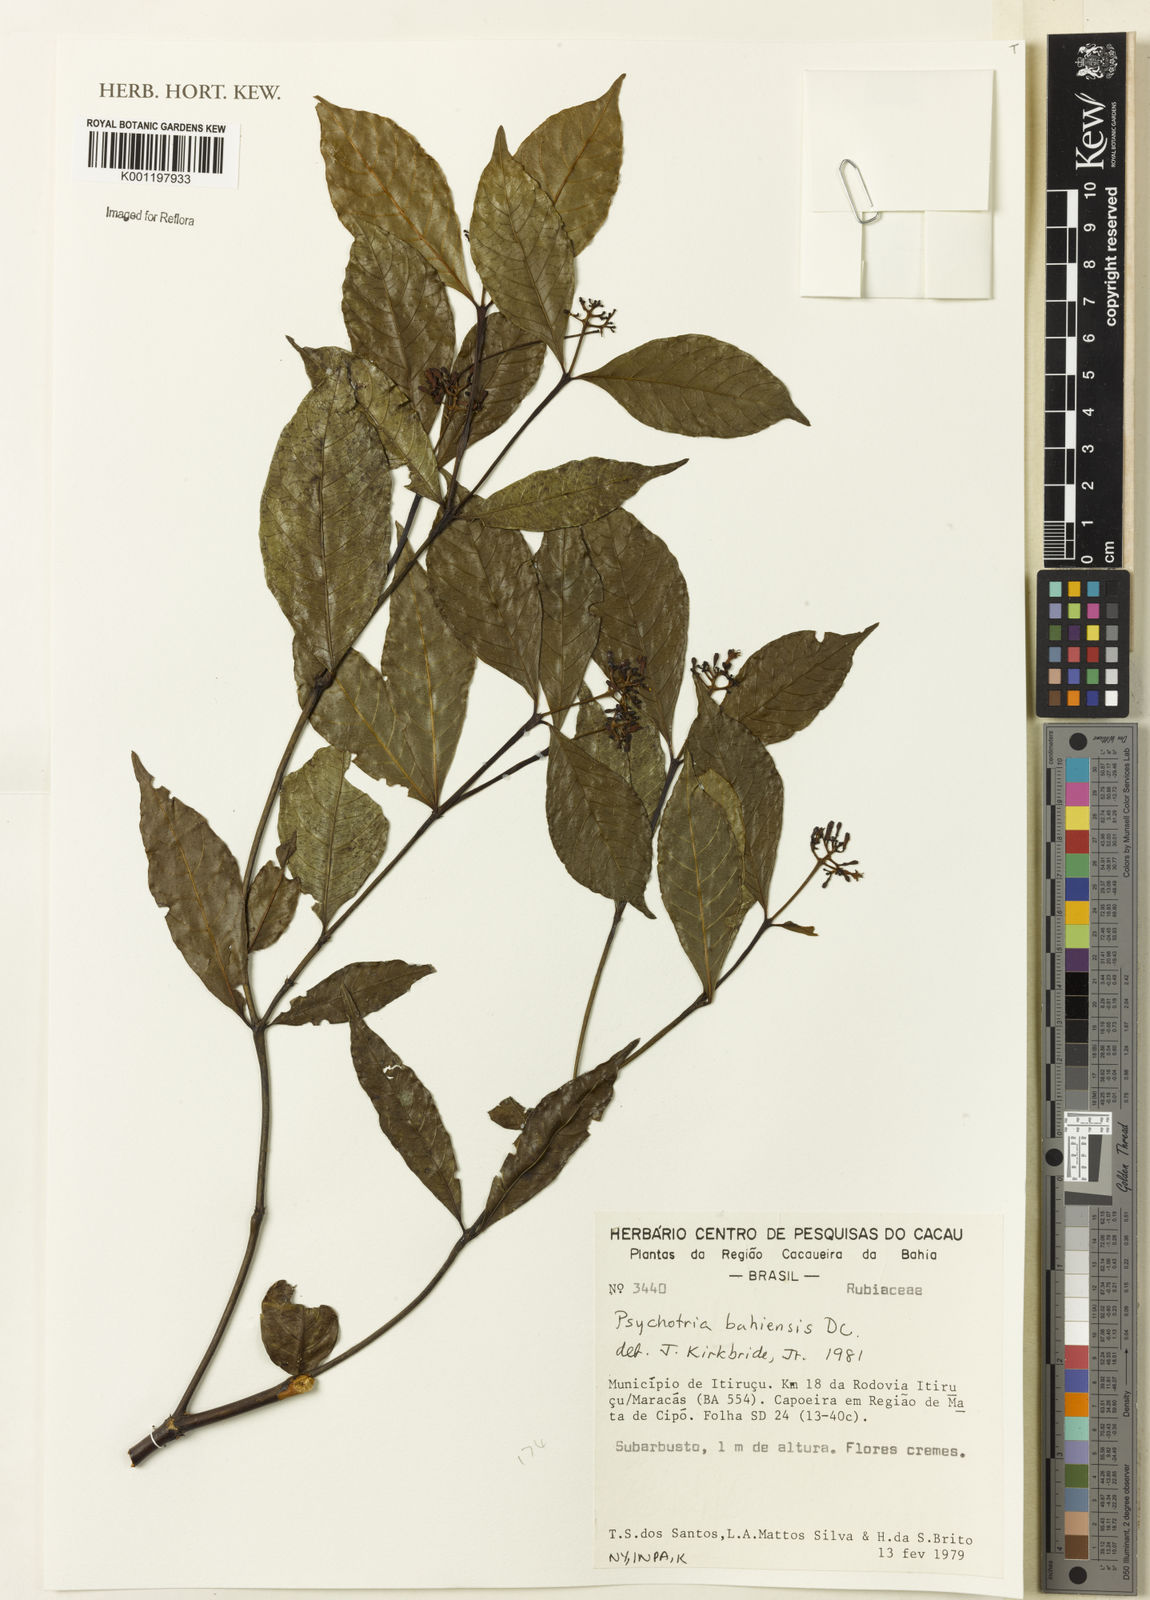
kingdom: Plantae
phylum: Tracheophyta
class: Magnoliopsida
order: Gentianales
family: Rubiaceae
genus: Psychotria
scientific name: Psychotria bahiensis
